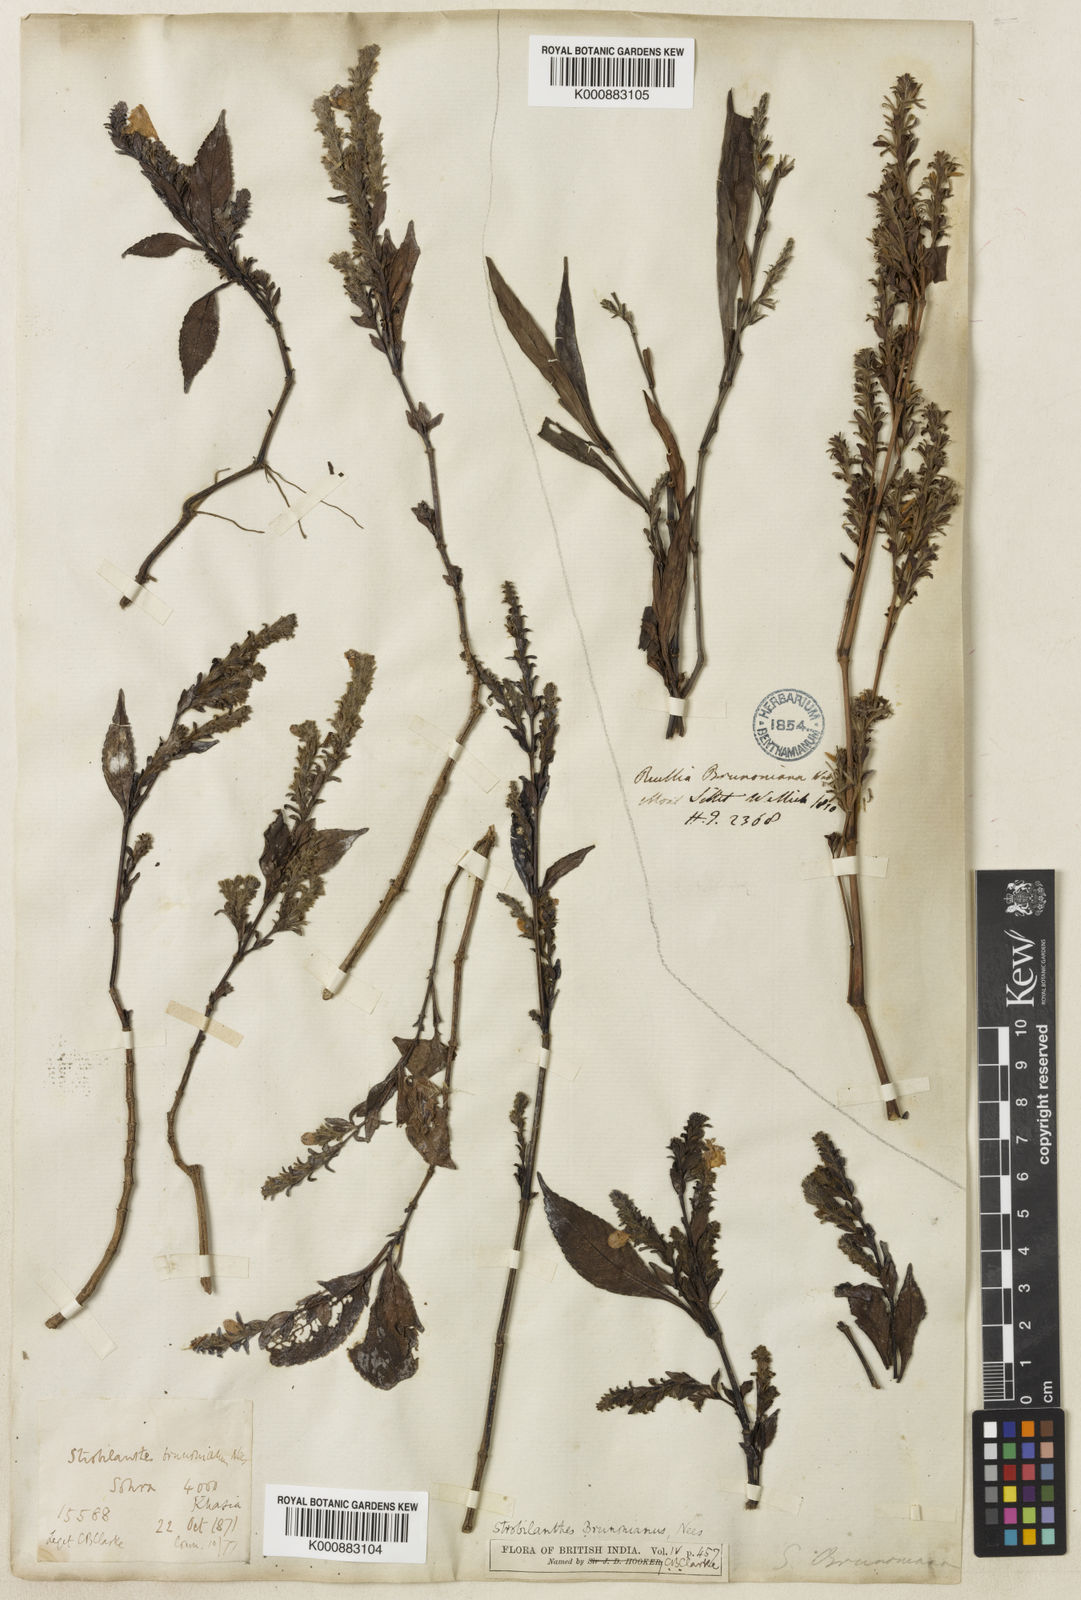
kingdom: Plantae
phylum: Tracheophyta
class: Magnoliopsida
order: Lamiales
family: Acanthaceae
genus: Strobilanthes
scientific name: Strobilanthes brunoniana
